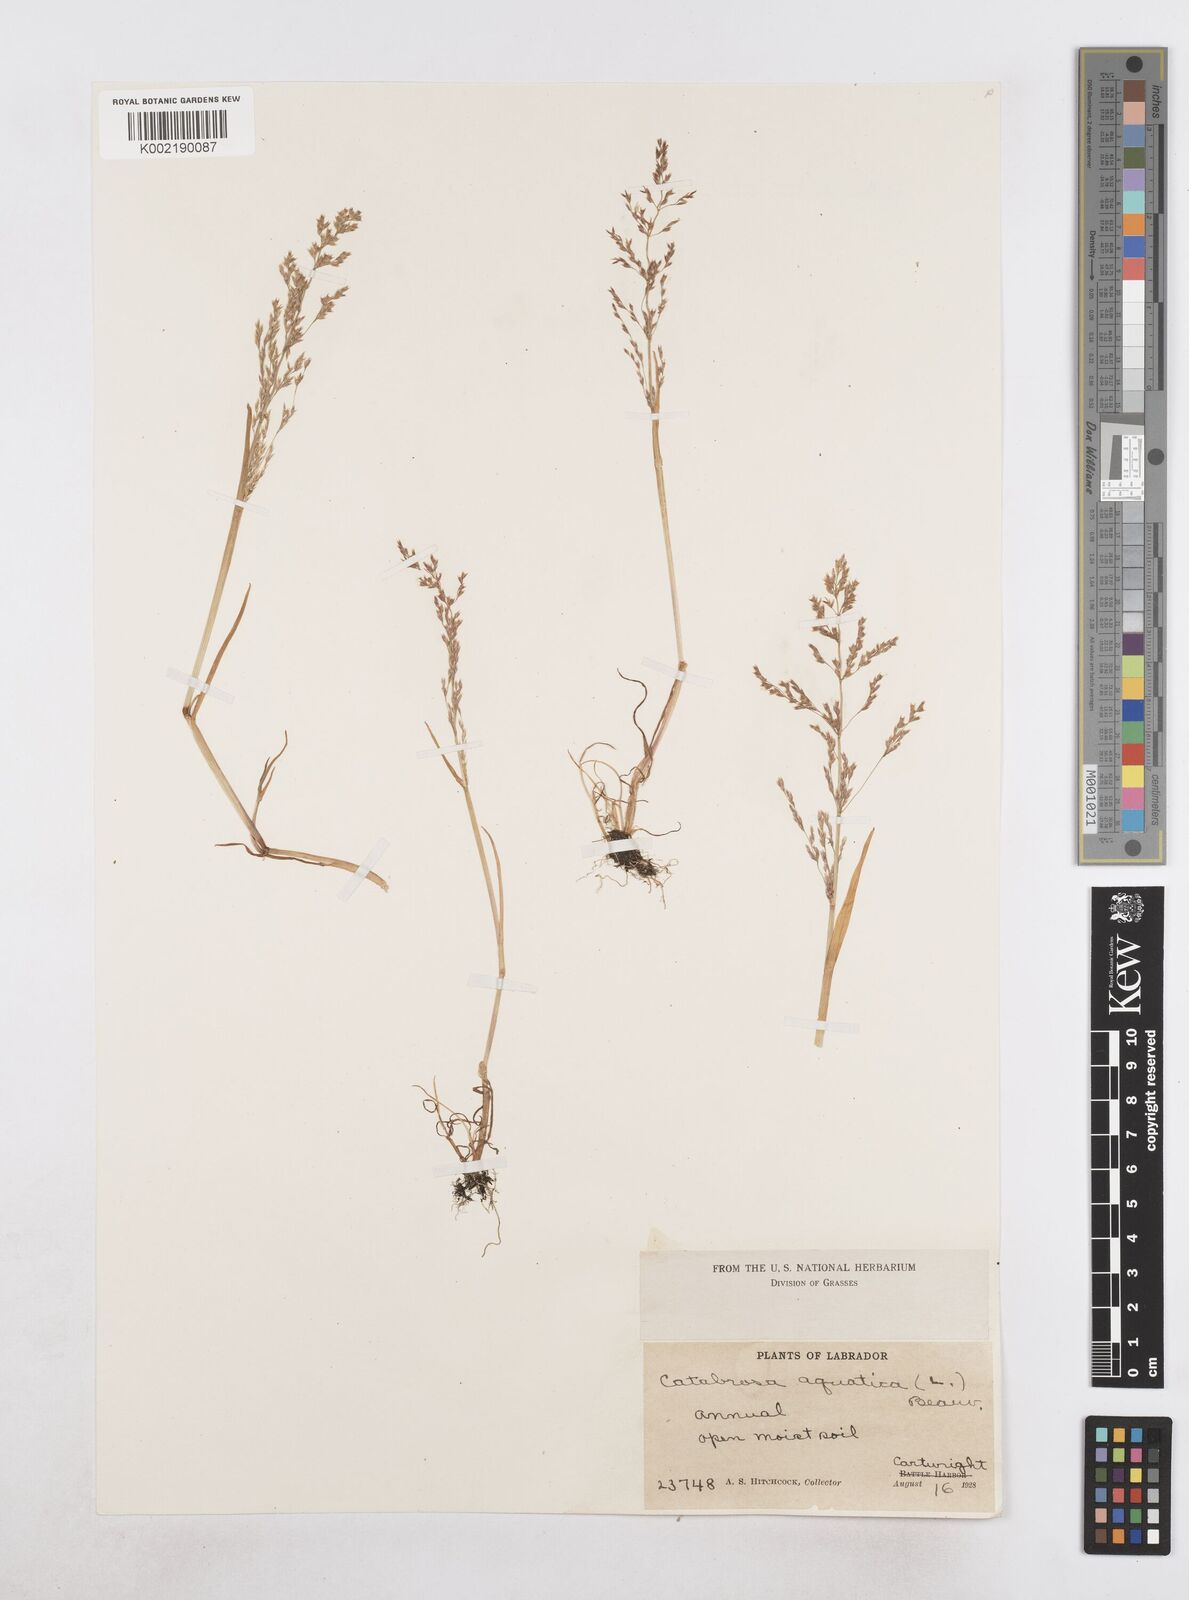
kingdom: Plantae
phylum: Tracheophyta
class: Liliopsida
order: Poales
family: Poaceae
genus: Catabrosa
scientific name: Catabrosa aquatica
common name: Whorl-grass
